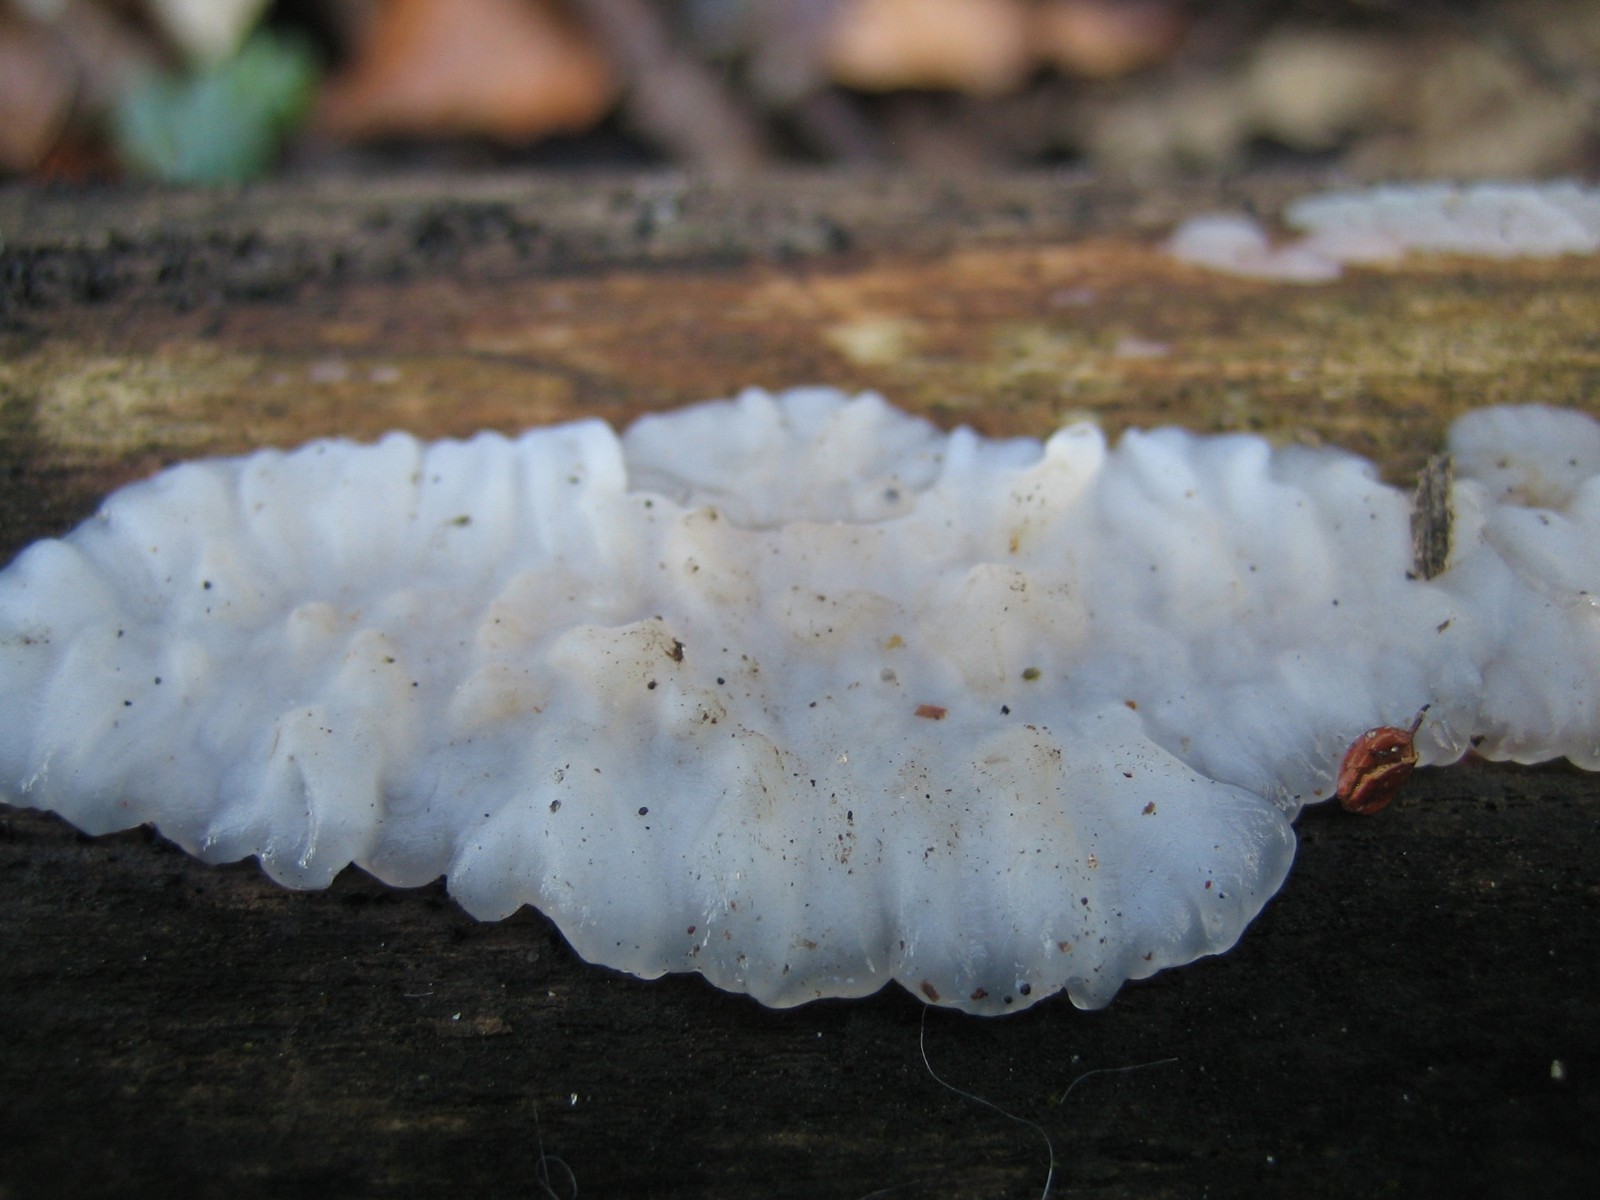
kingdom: Fungi
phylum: Basidiomycota
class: Agaricomycetes
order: Auriculariales
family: Auriculariaceae
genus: Exidia
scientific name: Exidia thuretiana
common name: hvidlig bævretop
